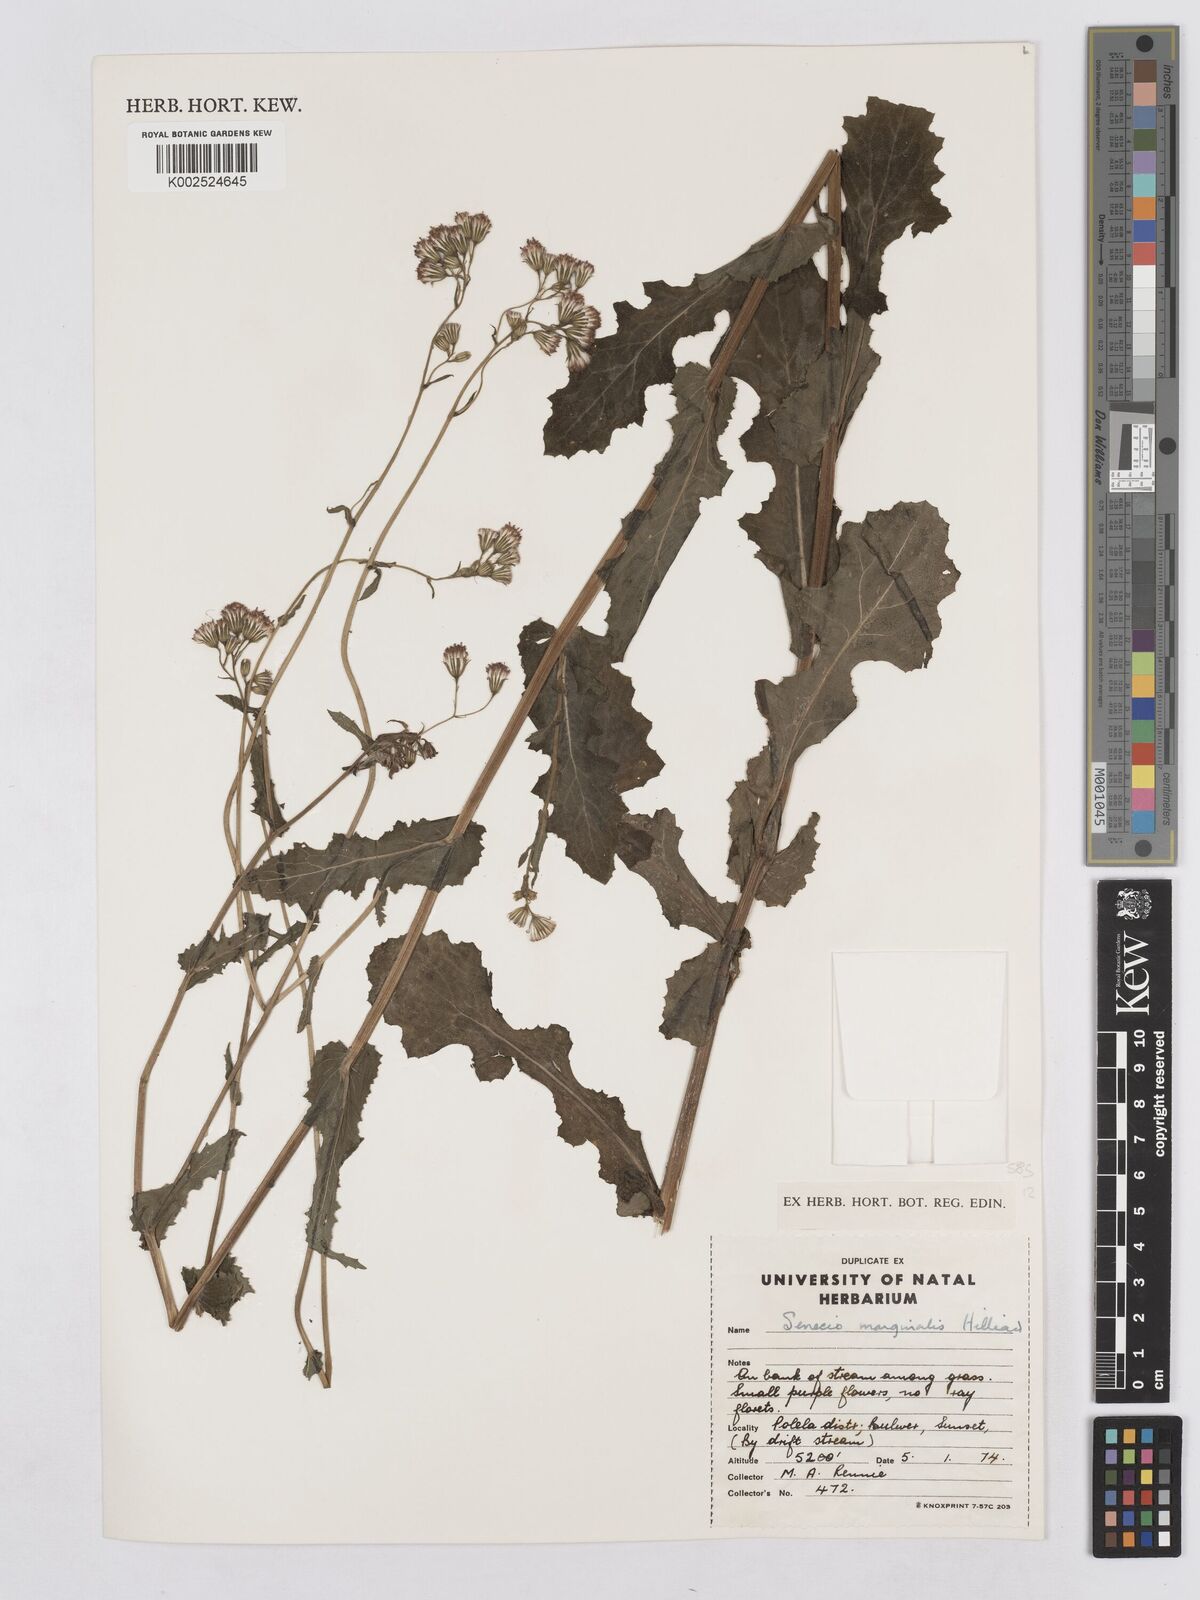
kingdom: Plantae
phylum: Tracheophyta
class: Magnoliopsida
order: Asterales
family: Asteraceae
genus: Senecio
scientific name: Senecio marginalis
